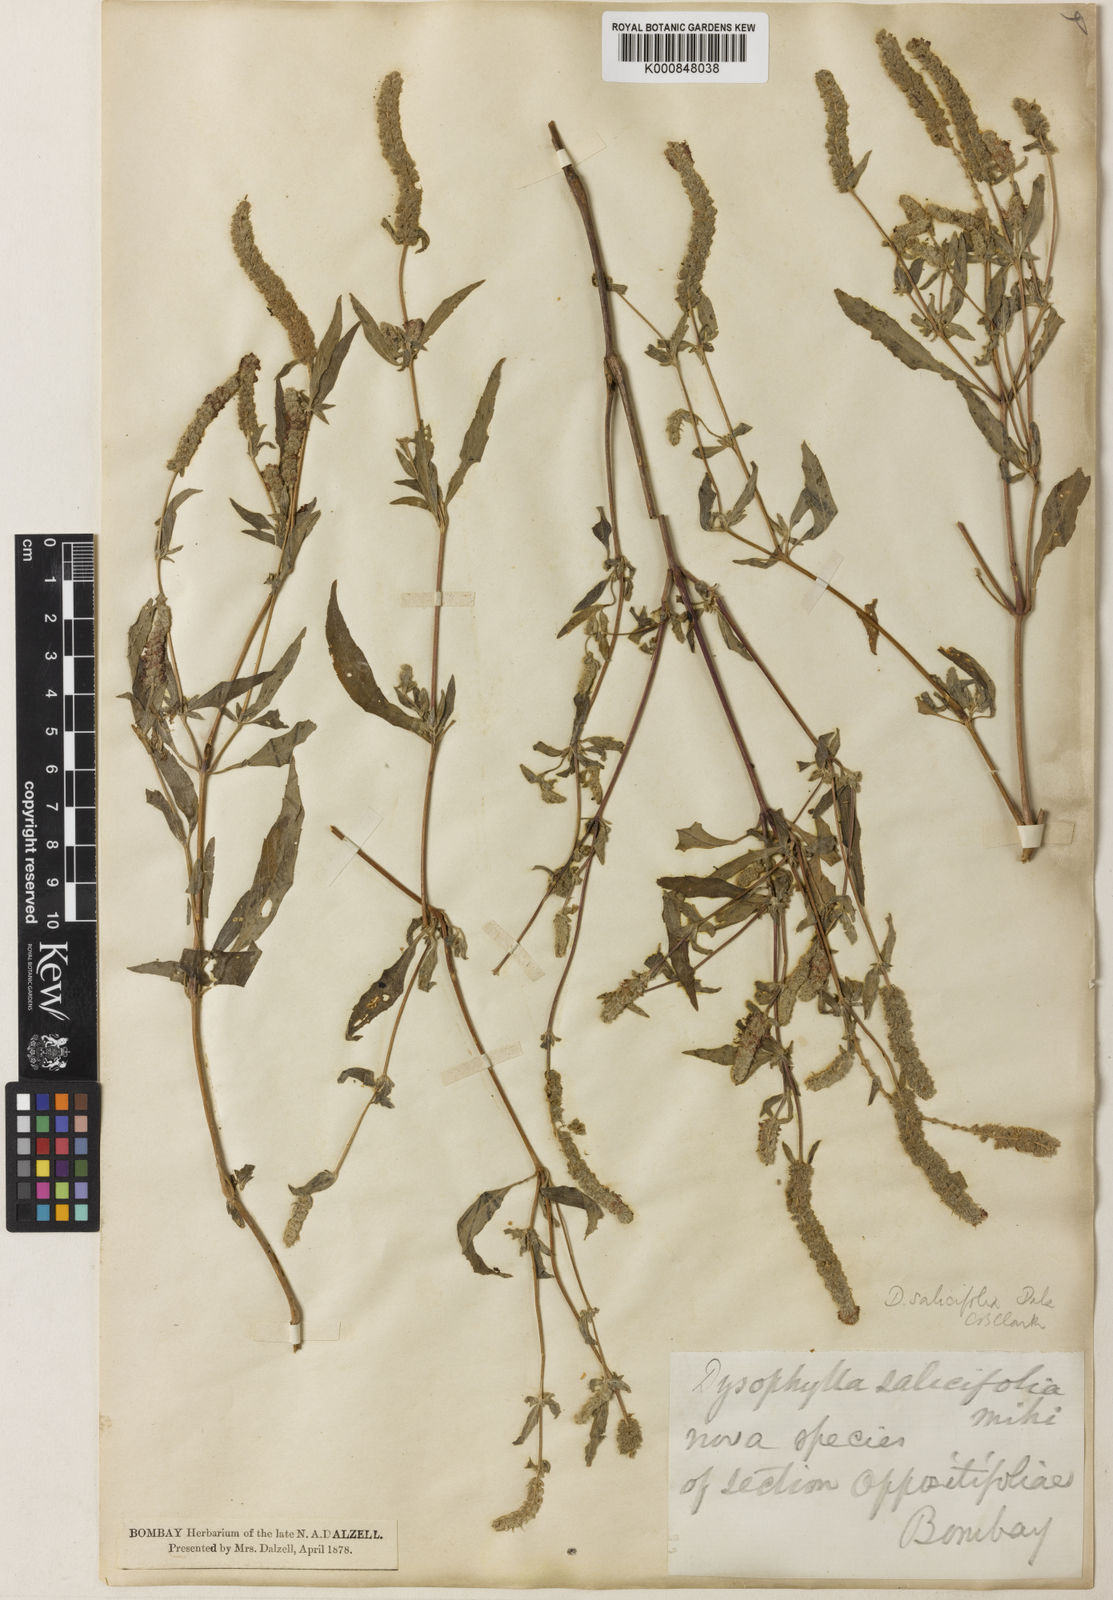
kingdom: Plantae
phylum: Tracheophyta
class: Magnoliopsida
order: Lamiales
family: Lamiaceae
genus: Pogostemon
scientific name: Pogostemon salicifolius
